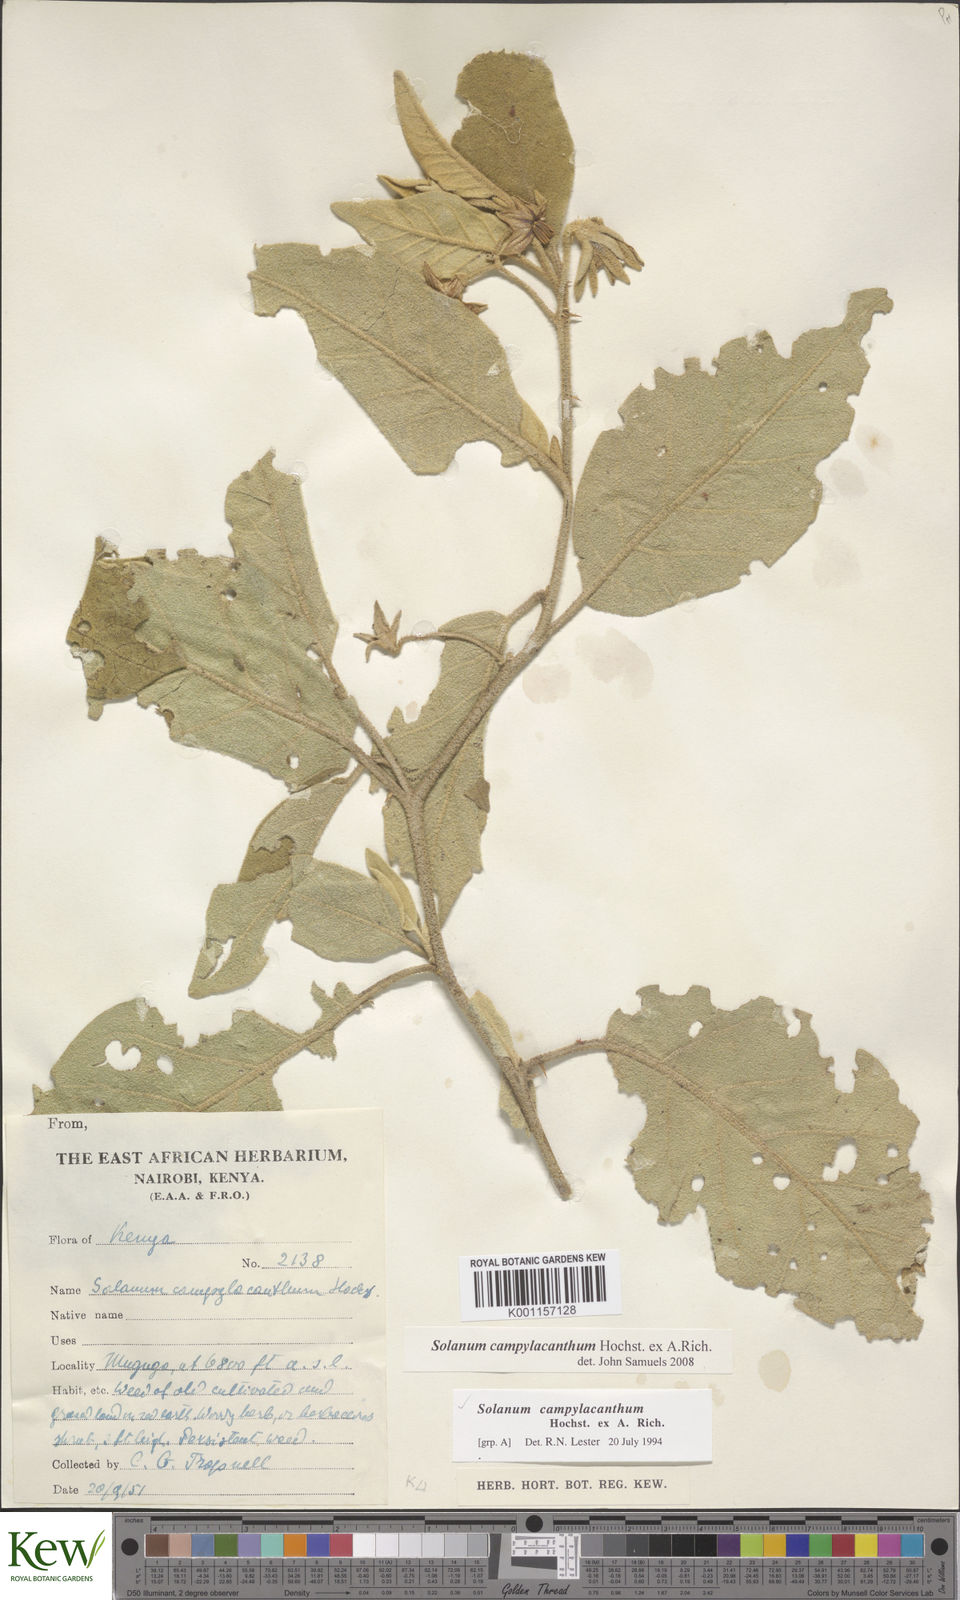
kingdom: Plantae
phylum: Tracheophyta
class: Magnoliopsida
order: Solanales
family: Solanaceae
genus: Solanum
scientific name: Solanum campylacanthum
